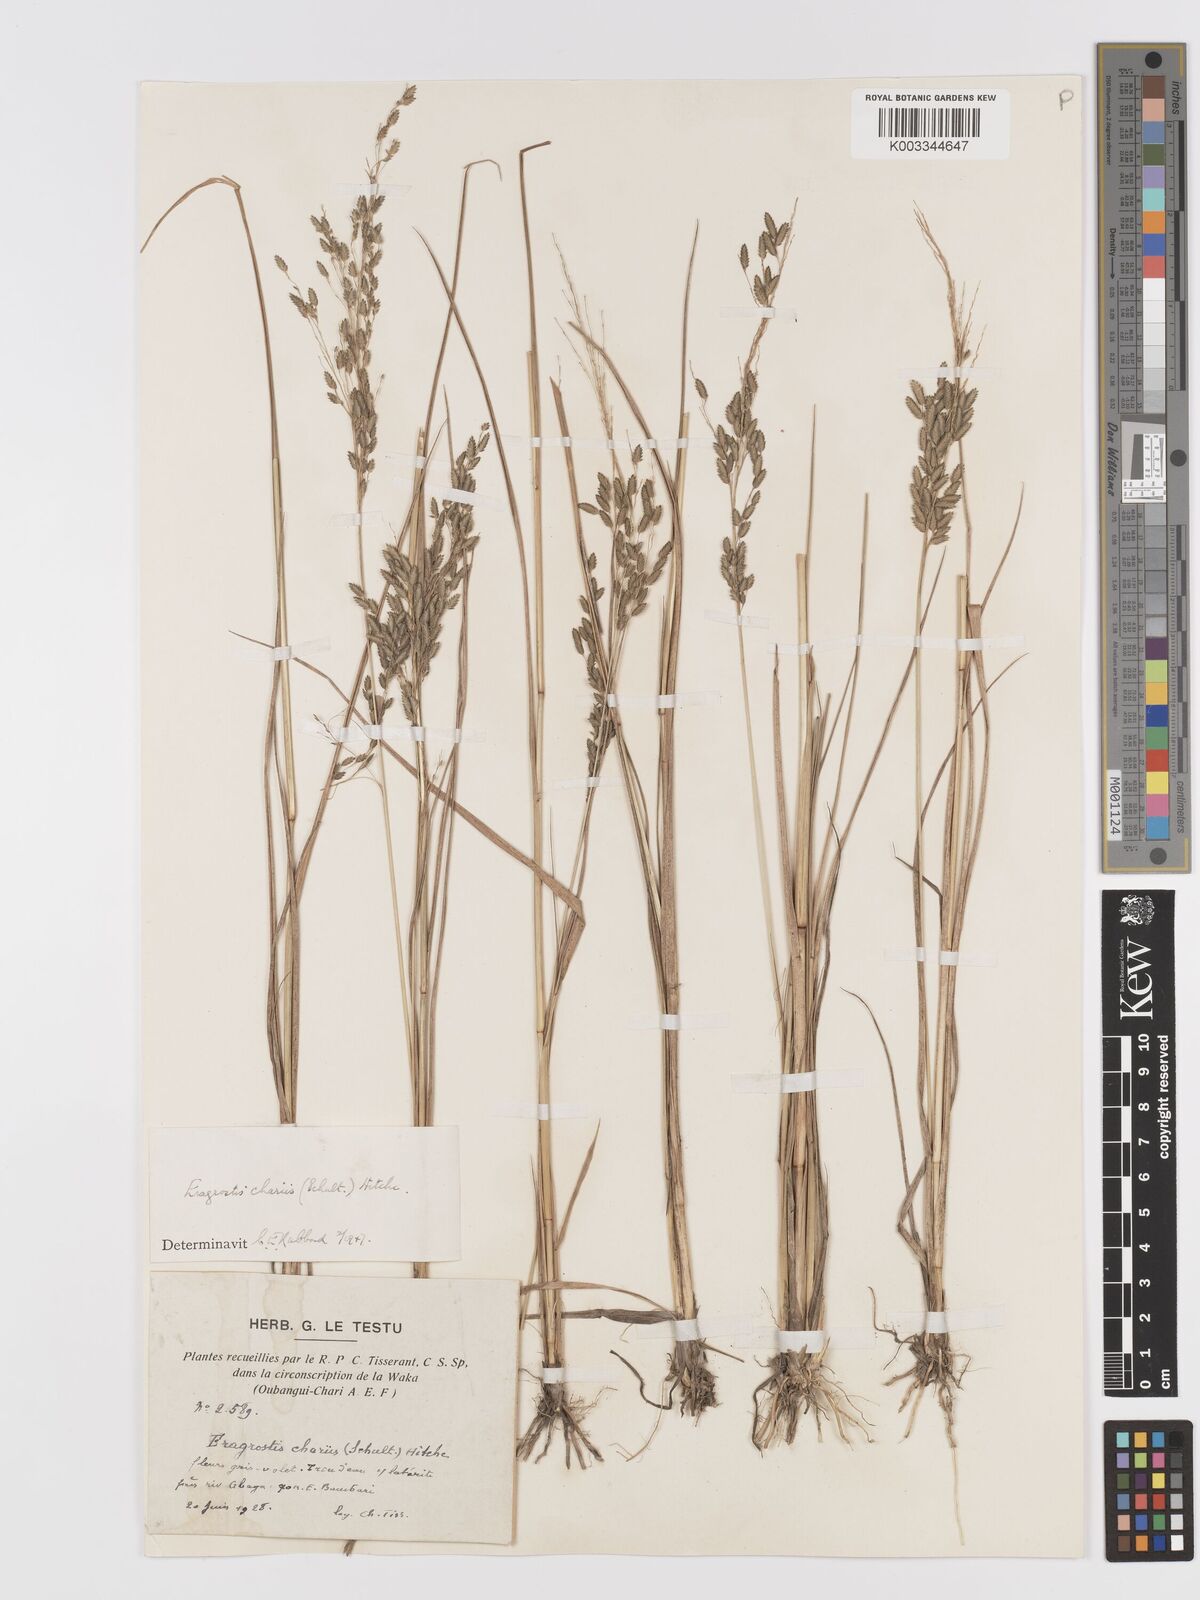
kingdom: Plantae
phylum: Tracheophyta
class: Liliopsida
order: Poales
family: Poaceae
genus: Eragrostis
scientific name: Eragrostis atrovirens
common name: Thalia lovegrass
